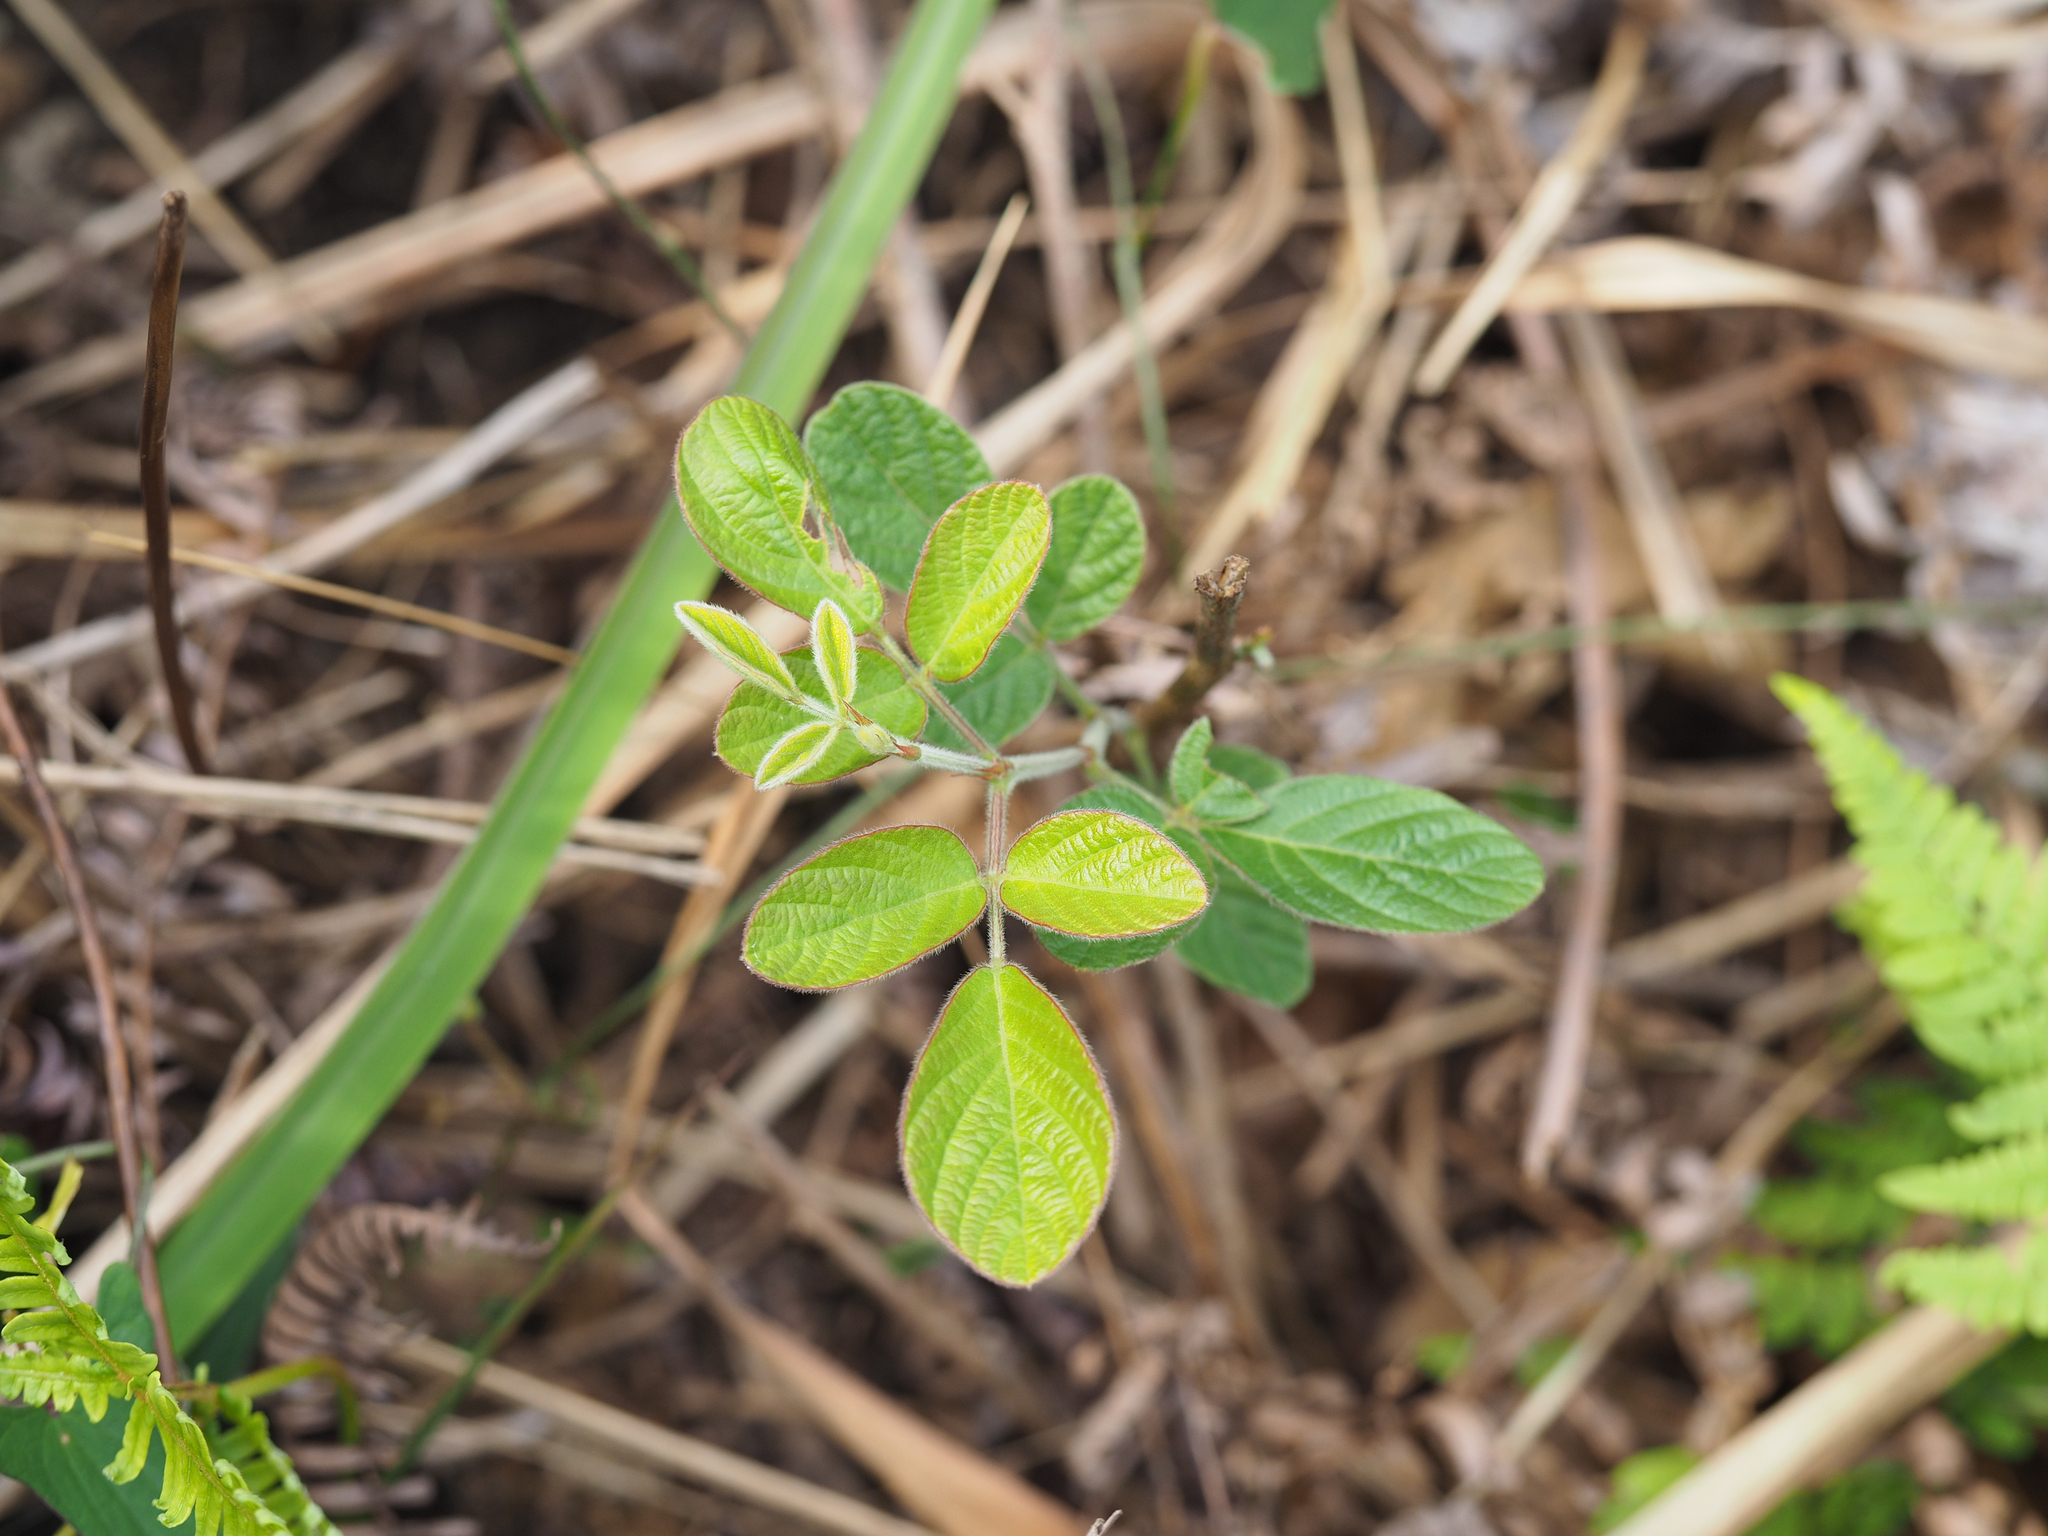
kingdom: Plantae
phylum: Tracheophyta
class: Magnoliopsida
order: Fabales
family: Fabaceae
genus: Phyllodium
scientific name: Phyllodium pulchellum
